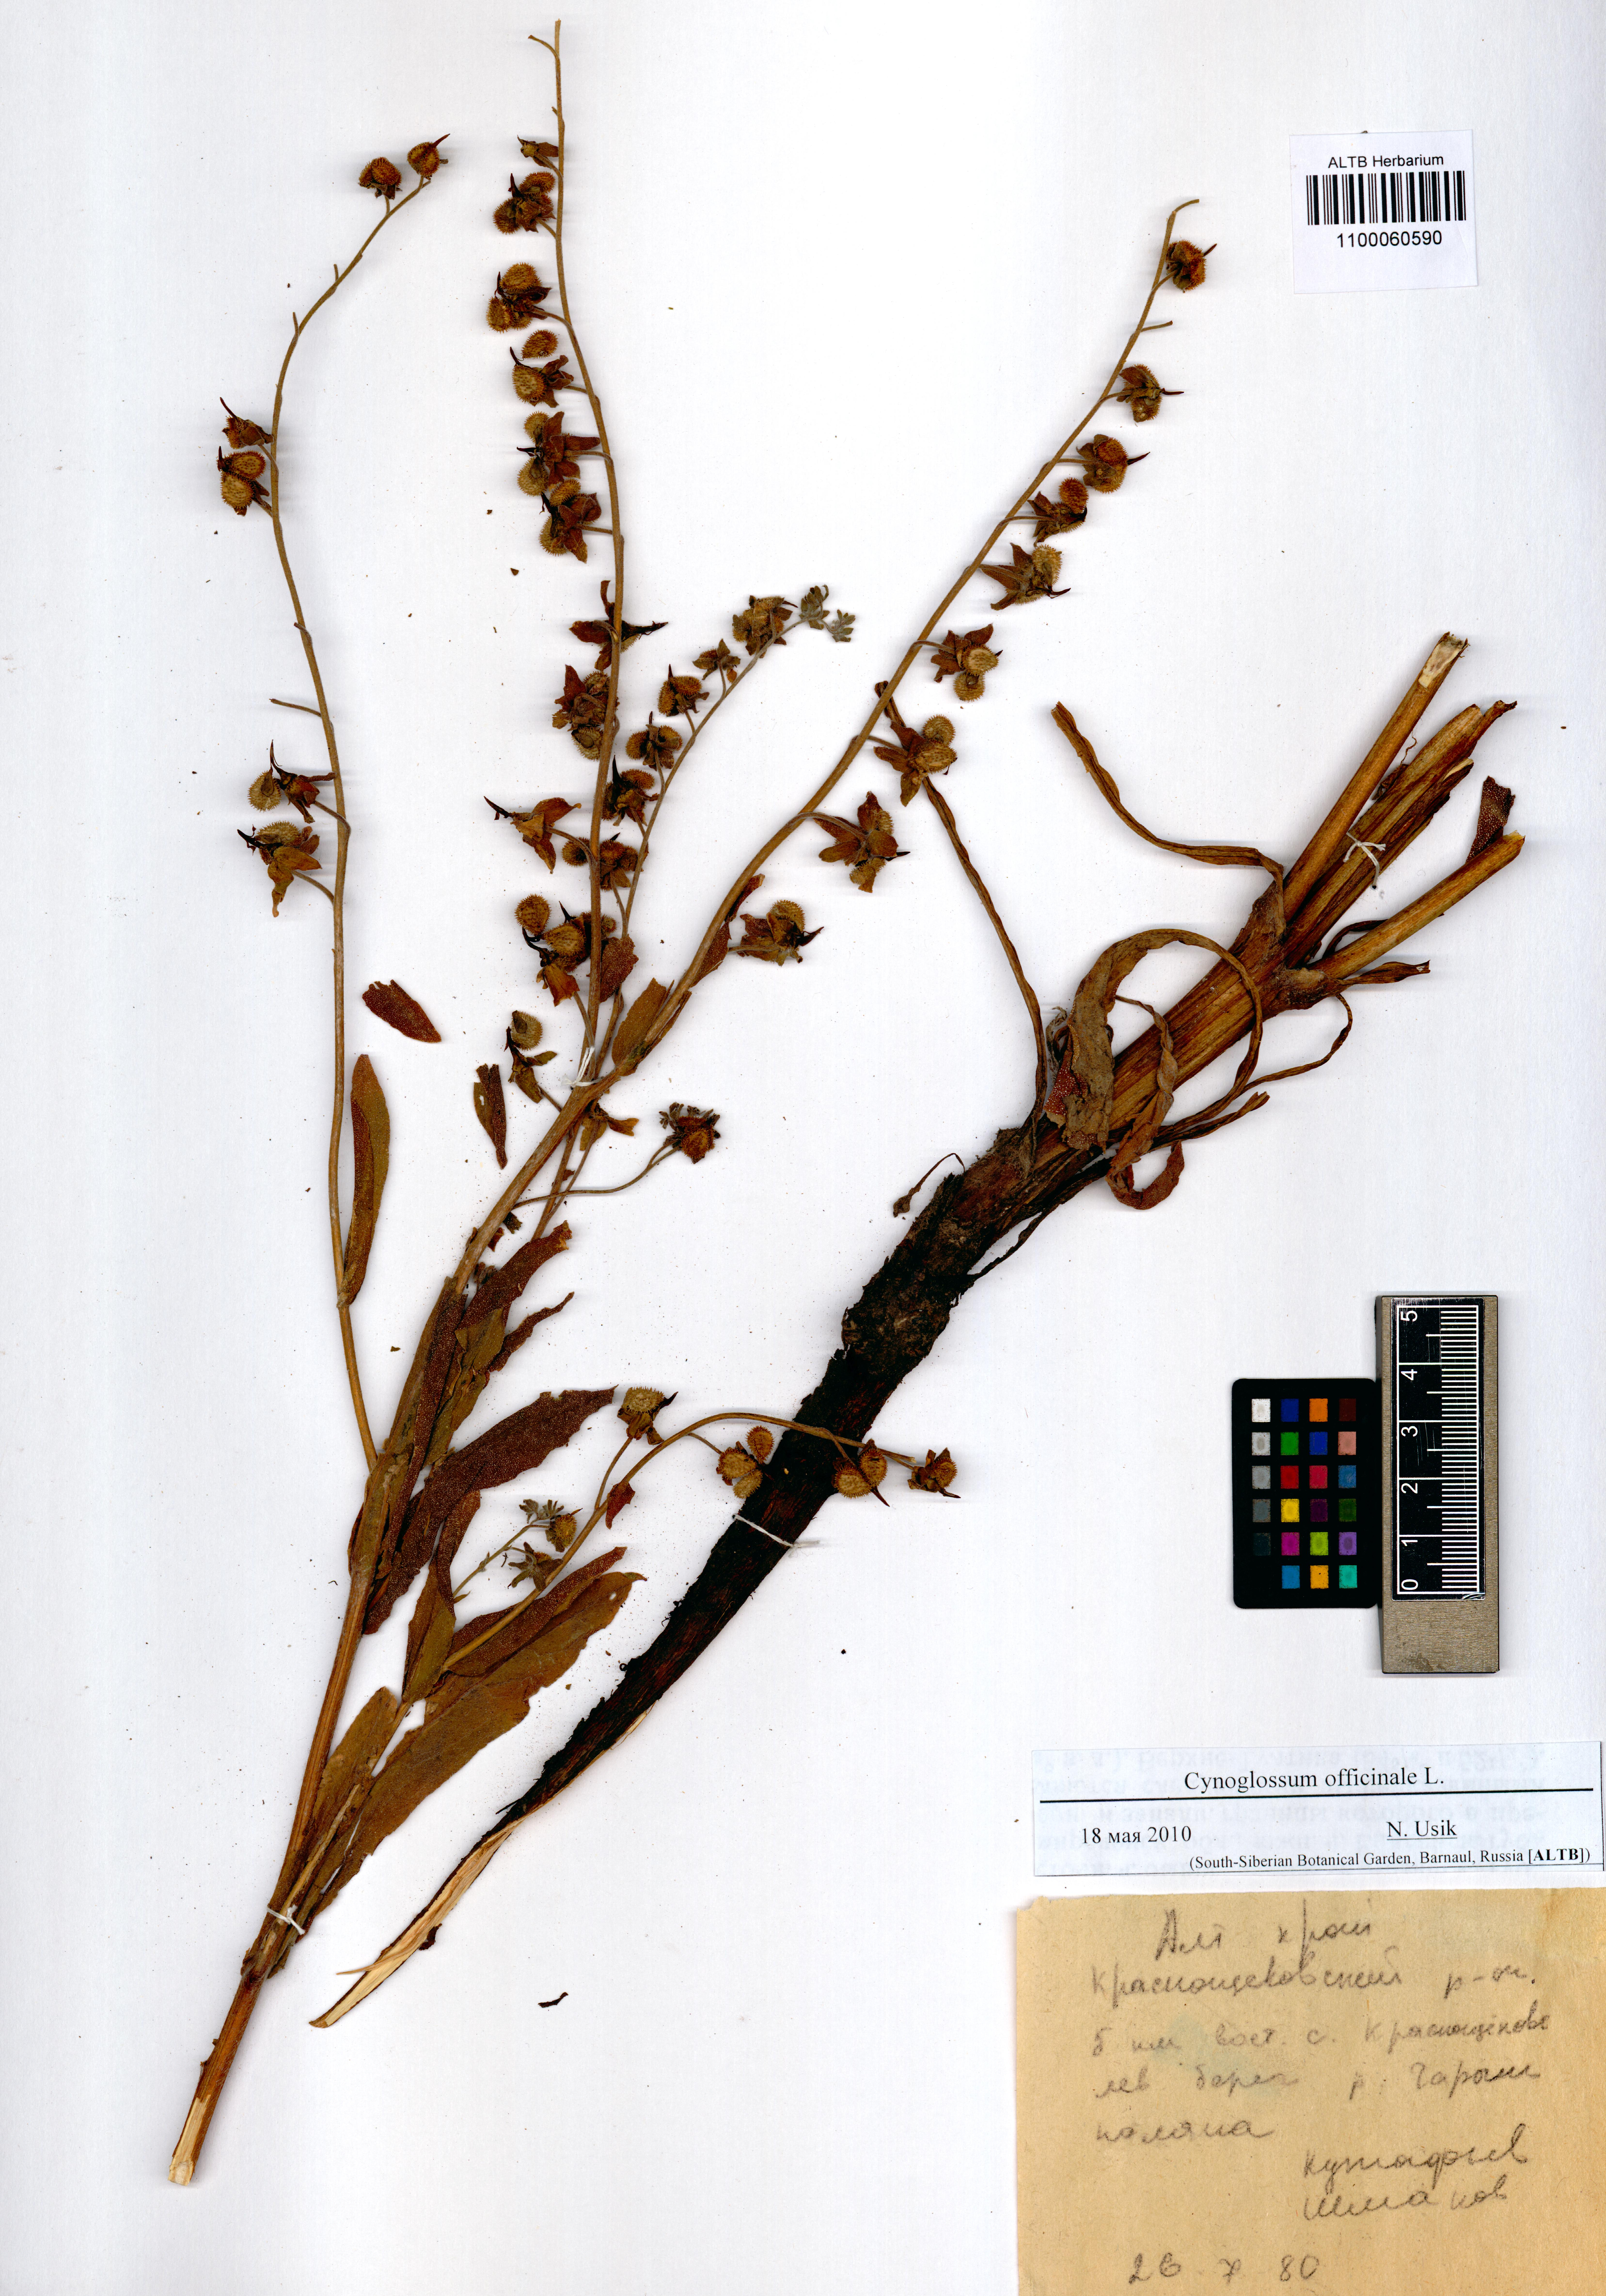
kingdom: Plantae
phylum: Tracheophyta
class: Magnoliopsida
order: Boraginales
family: Boraginaceae
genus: Cynoglossum
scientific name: Cynoglossum officinale
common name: Hound's-tongue
